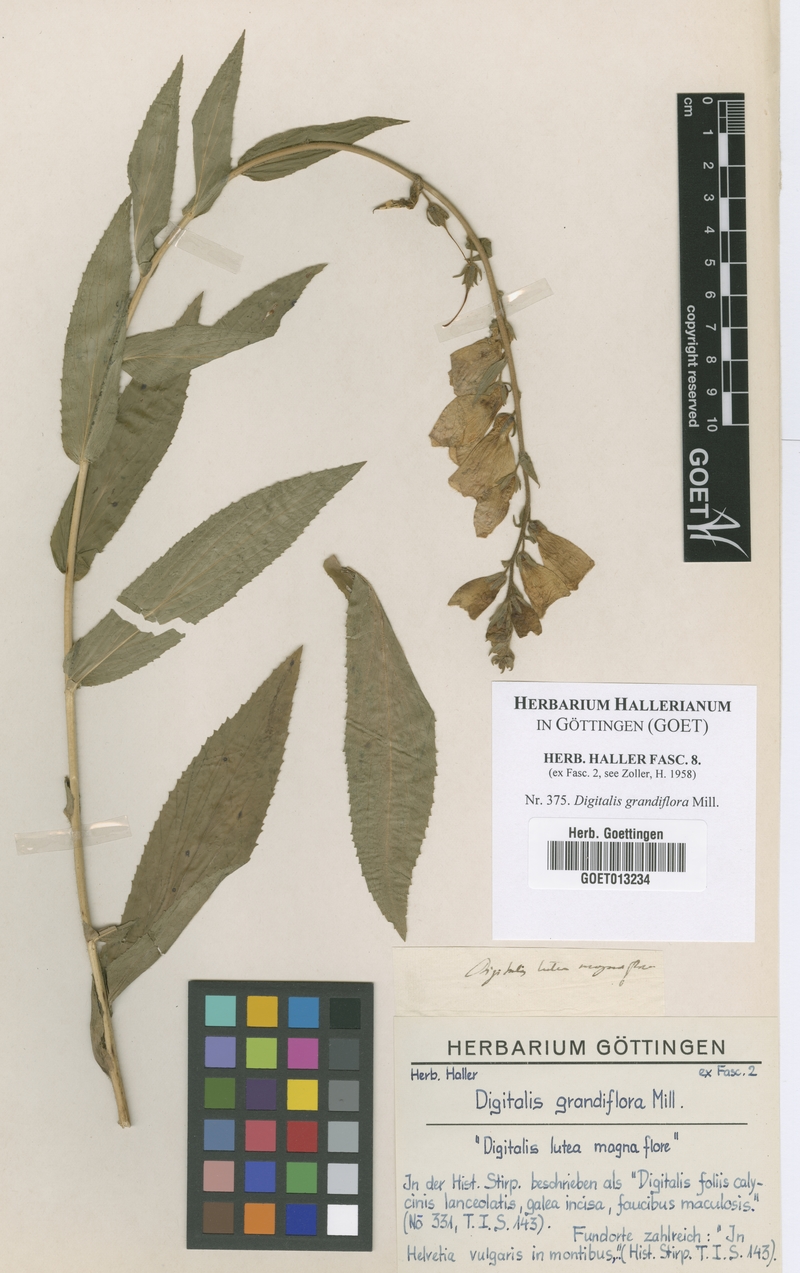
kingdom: Plantae
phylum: Tracheophyta
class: Magnoliopsida
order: Lamiales
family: Plantaginaceae
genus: Digitalis
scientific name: Digitalis grandiflora
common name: Yellow foxglove
